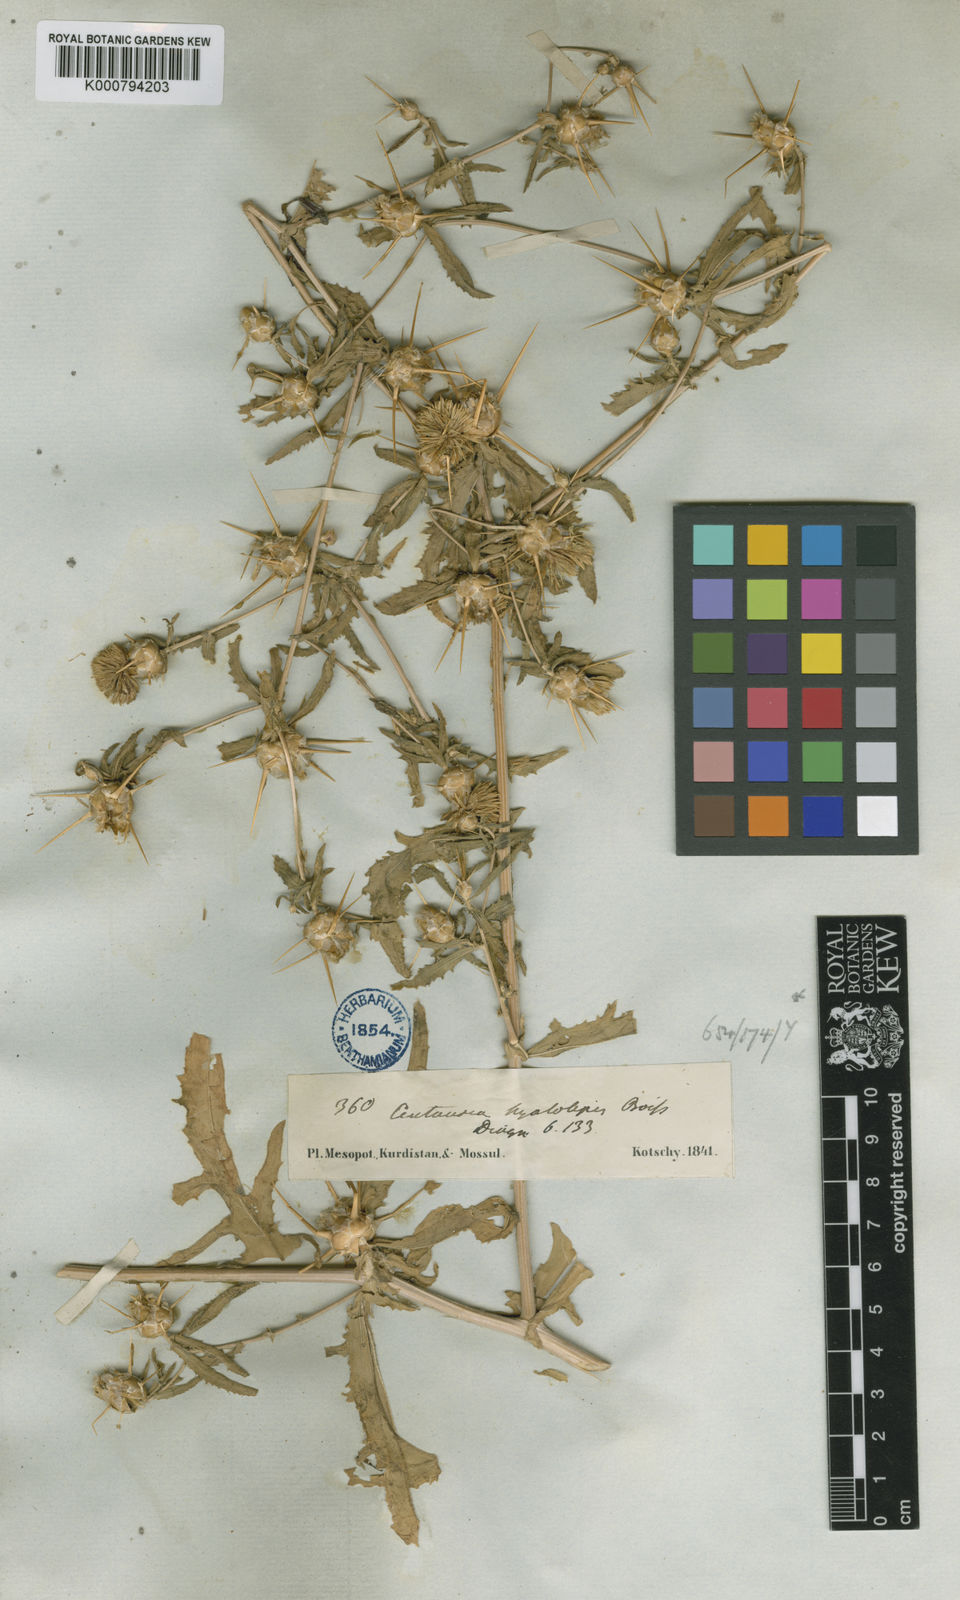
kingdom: Plantae
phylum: Tracheophyta
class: Magnoliopsida
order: Asterales
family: Asteraceae
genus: Centaurea
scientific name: Centaurea hyalolepis
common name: Eastern star-thistle
